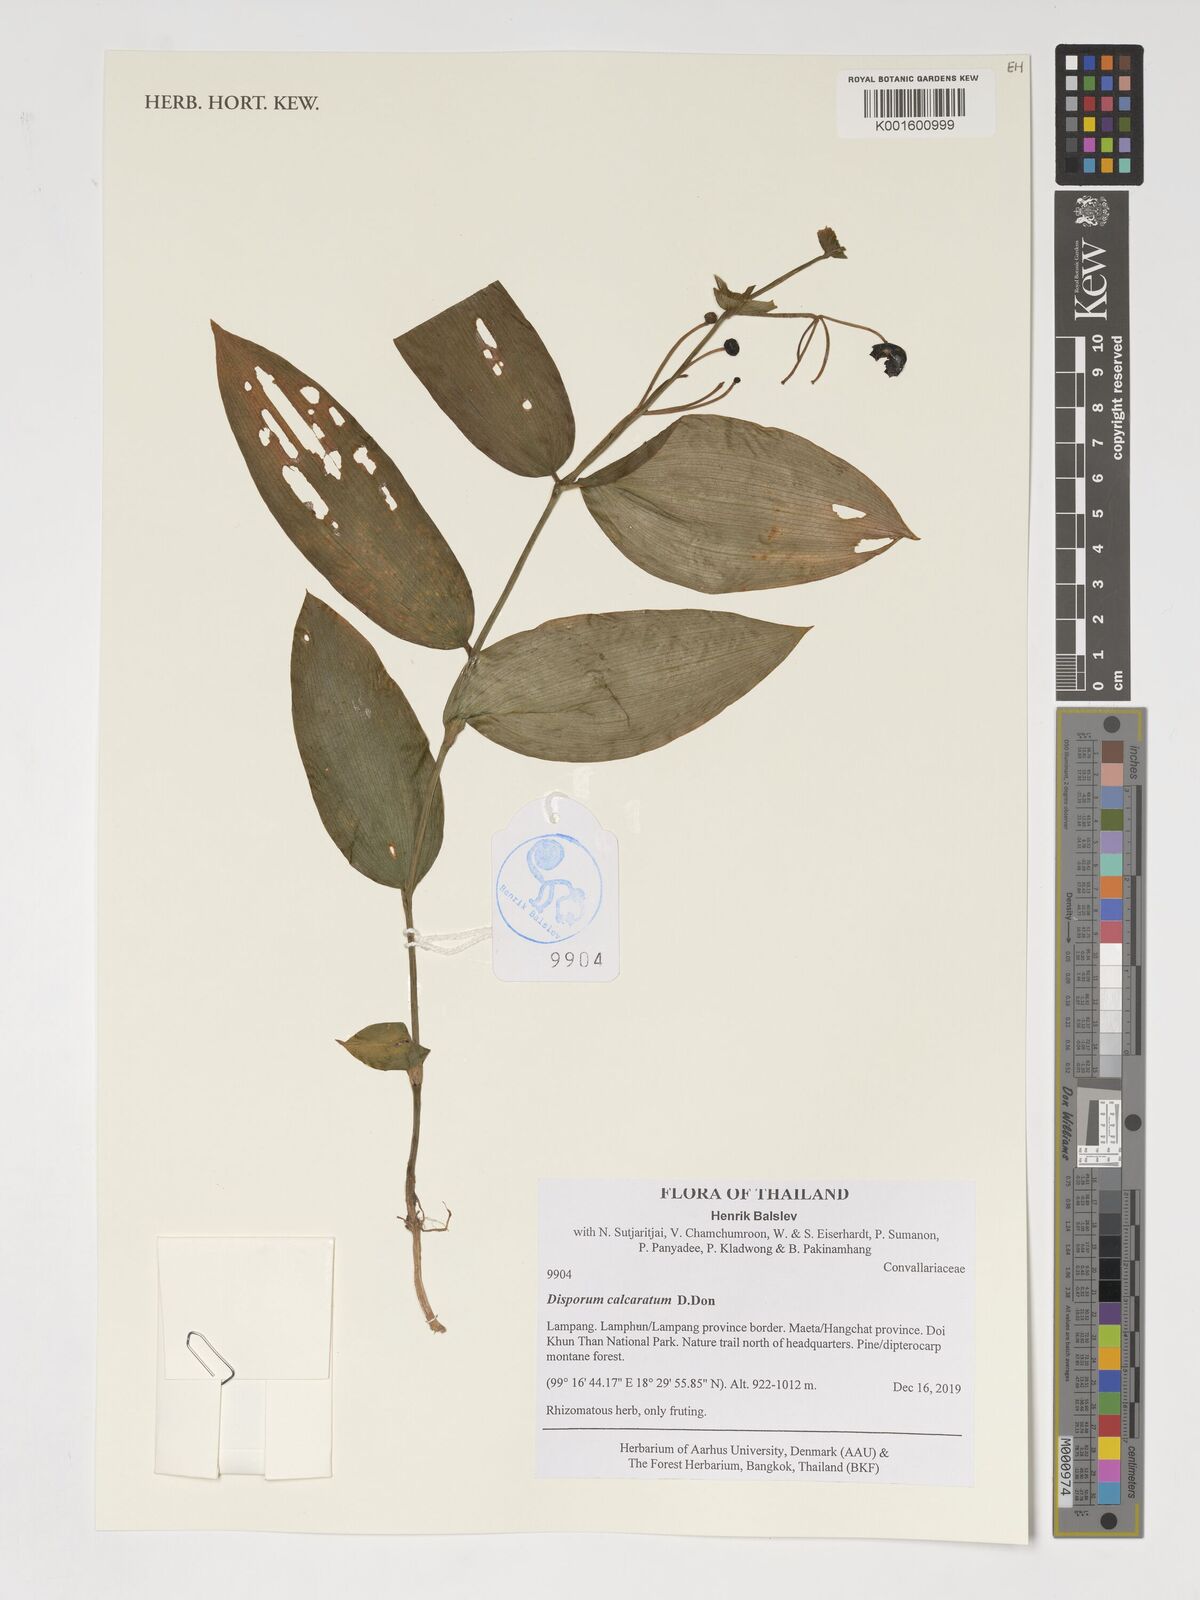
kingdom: Plantae
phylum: Tracheophyta
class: Liliopsida
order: Liliales
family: Colchicaceae
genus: Disporum
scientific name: Disporum calcaratum
